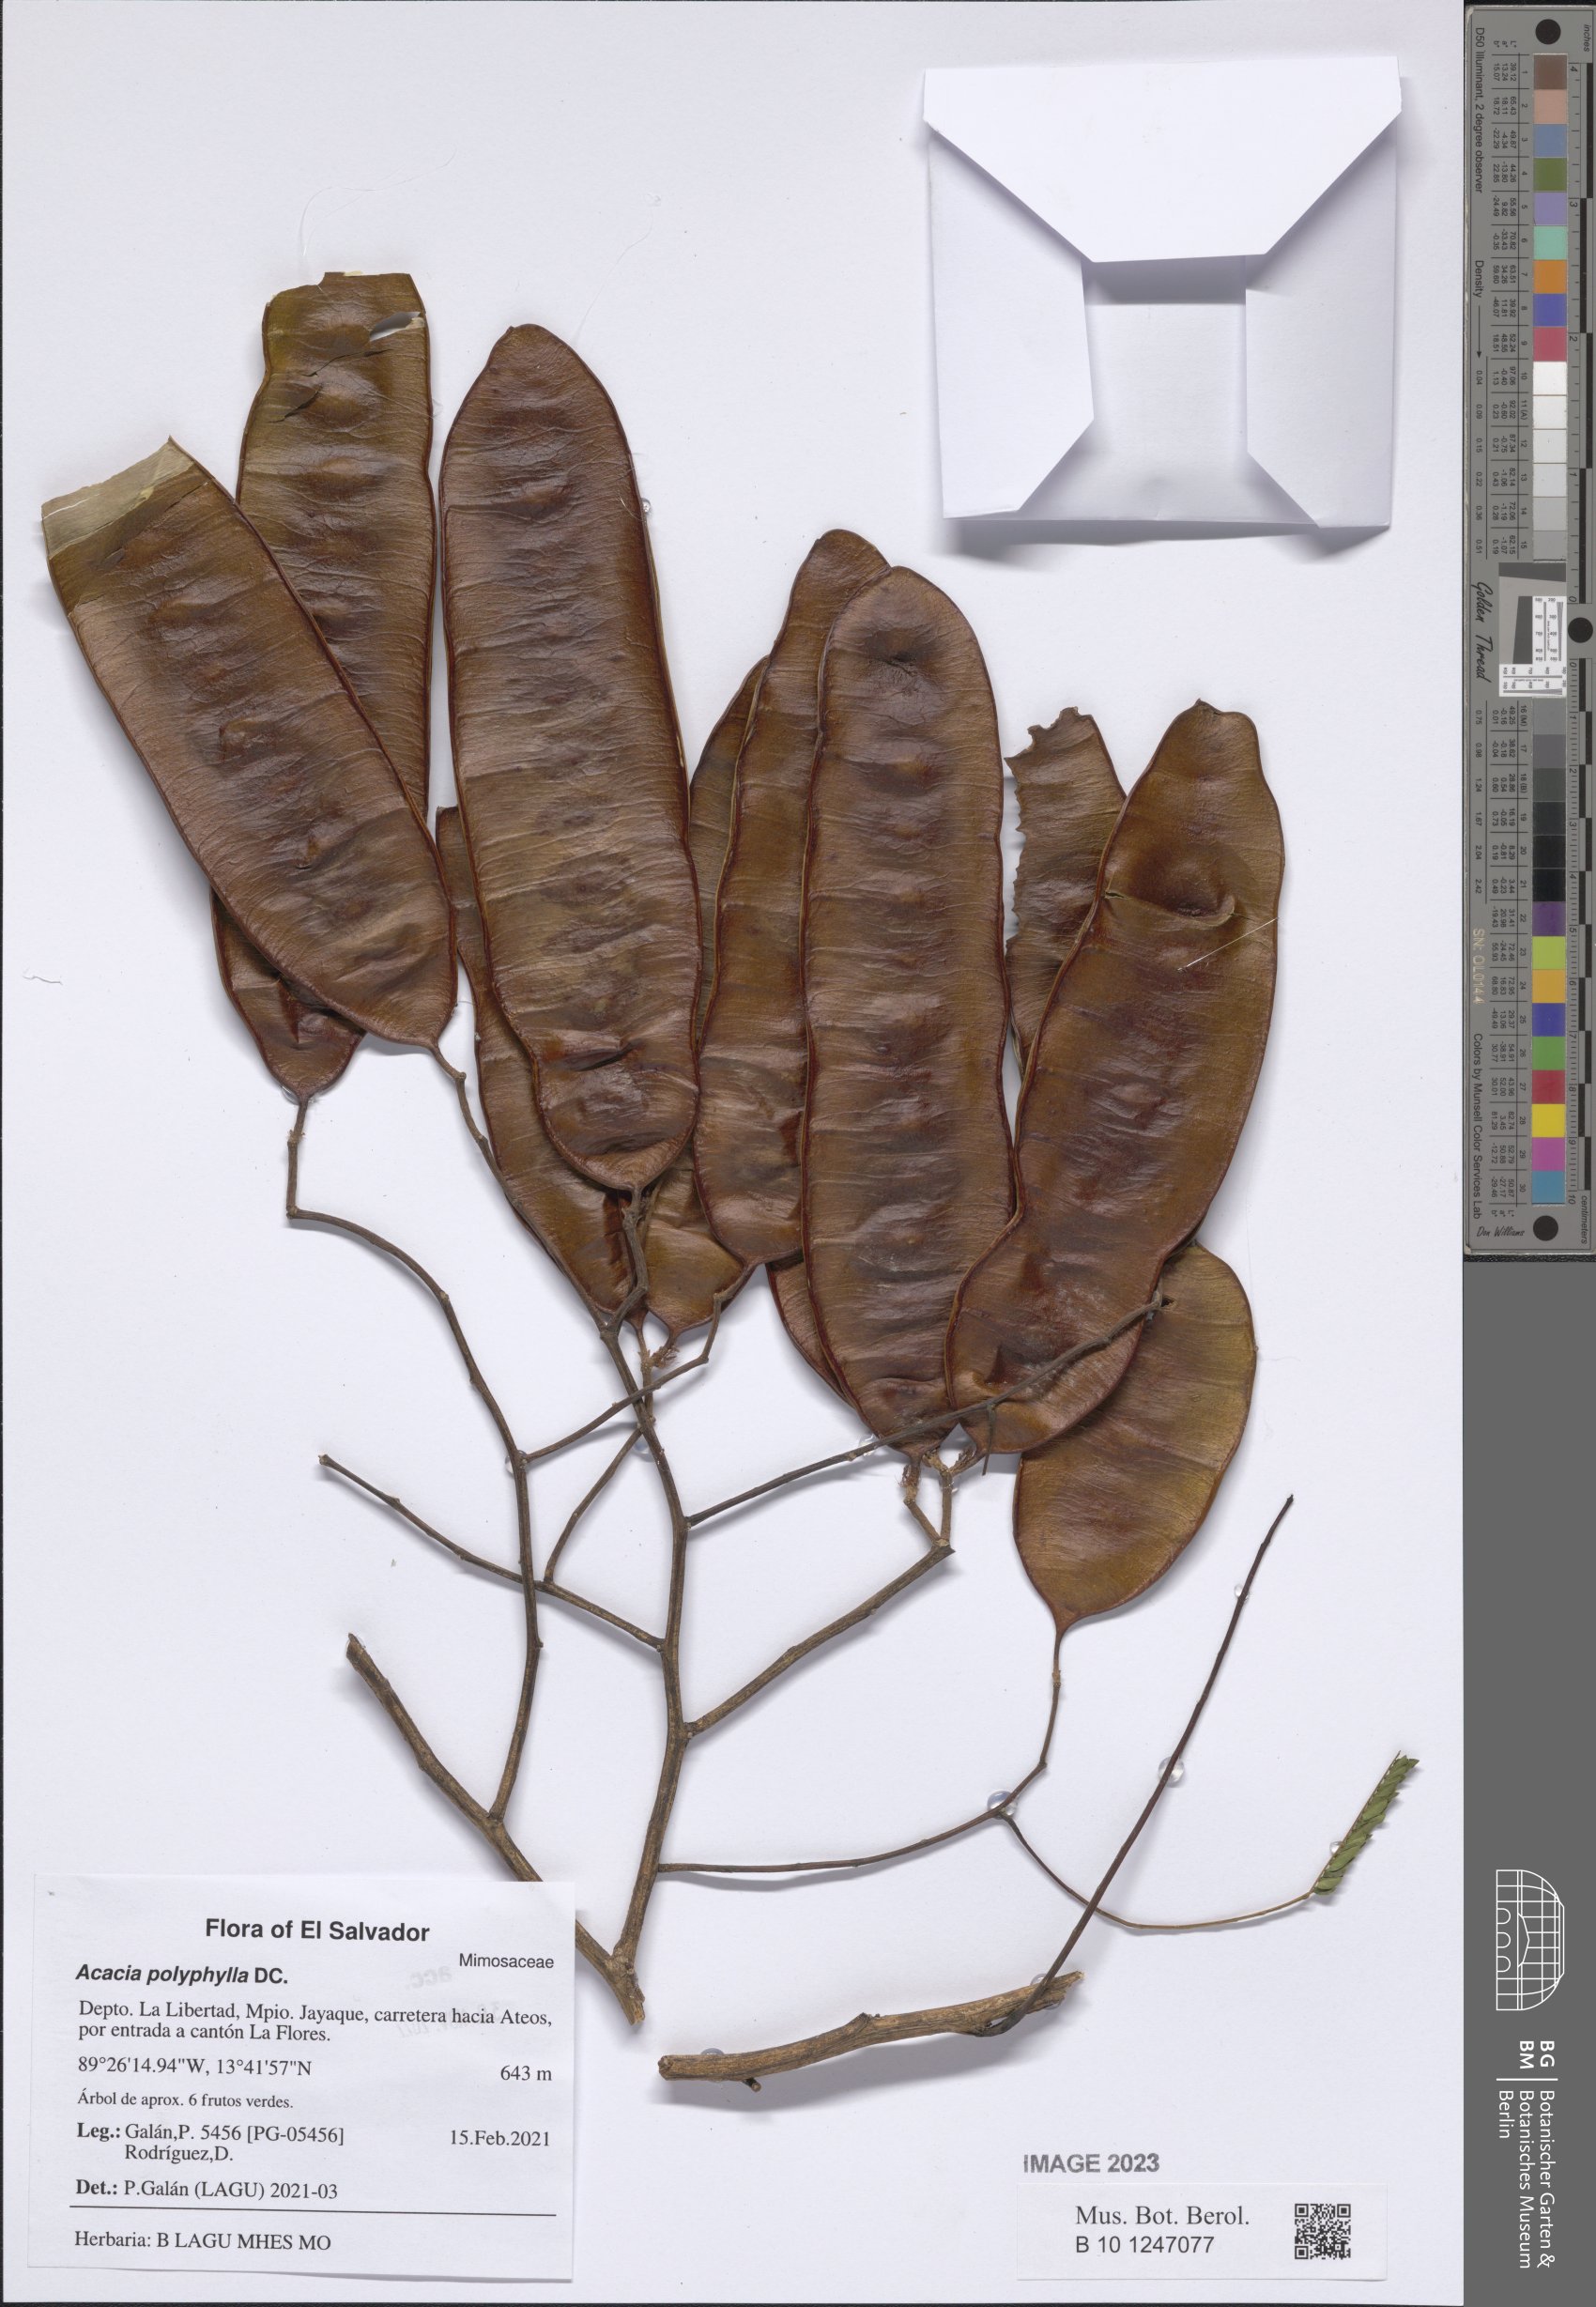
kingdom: Plantae
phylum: Tracheophyta
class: Magnoliopsida
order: Fabales
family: Fabaceae
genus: Senegalia
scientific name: Senegalia polyphylla
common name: White-tamarind
